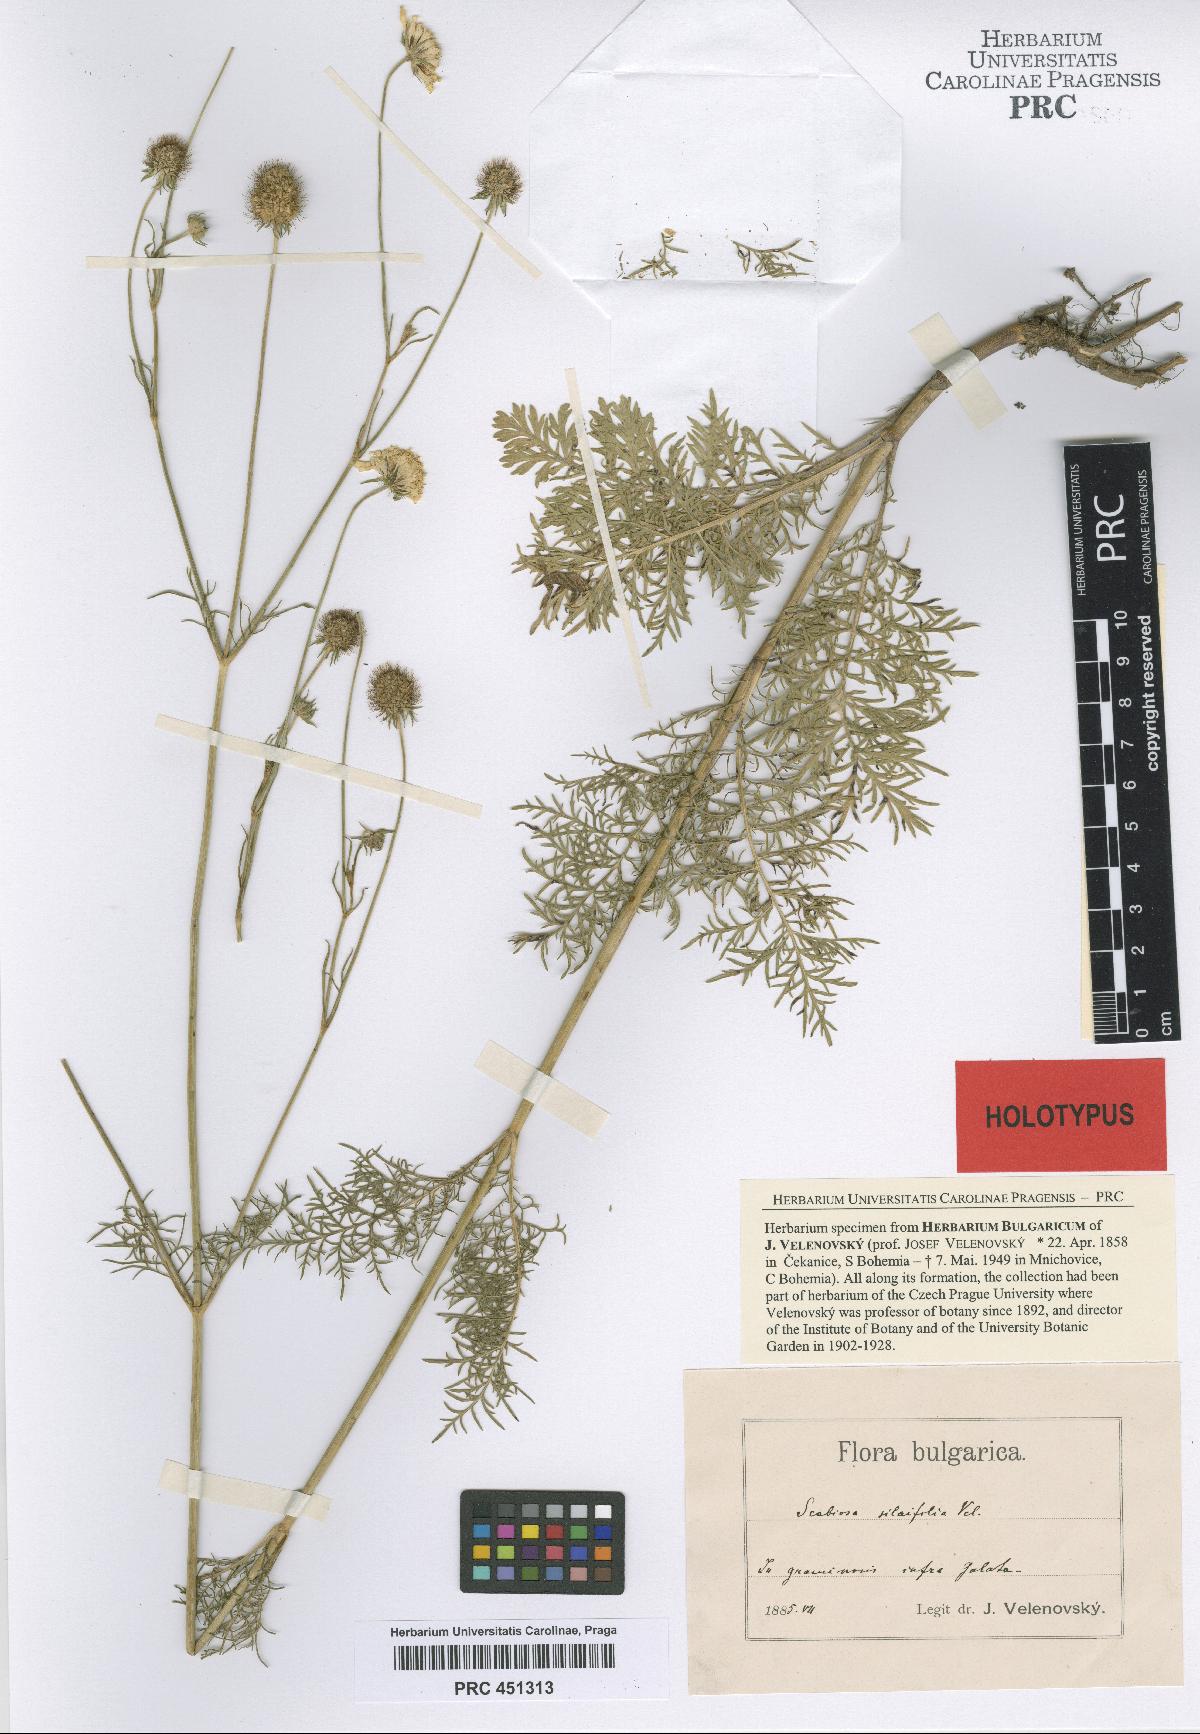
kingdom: Plantae
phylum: Tracheophyta
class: Magnoliopsida
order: Dipsacales
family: Caprifoliaceae
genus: Scabiosa
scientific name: Scabiosa triniifolia
